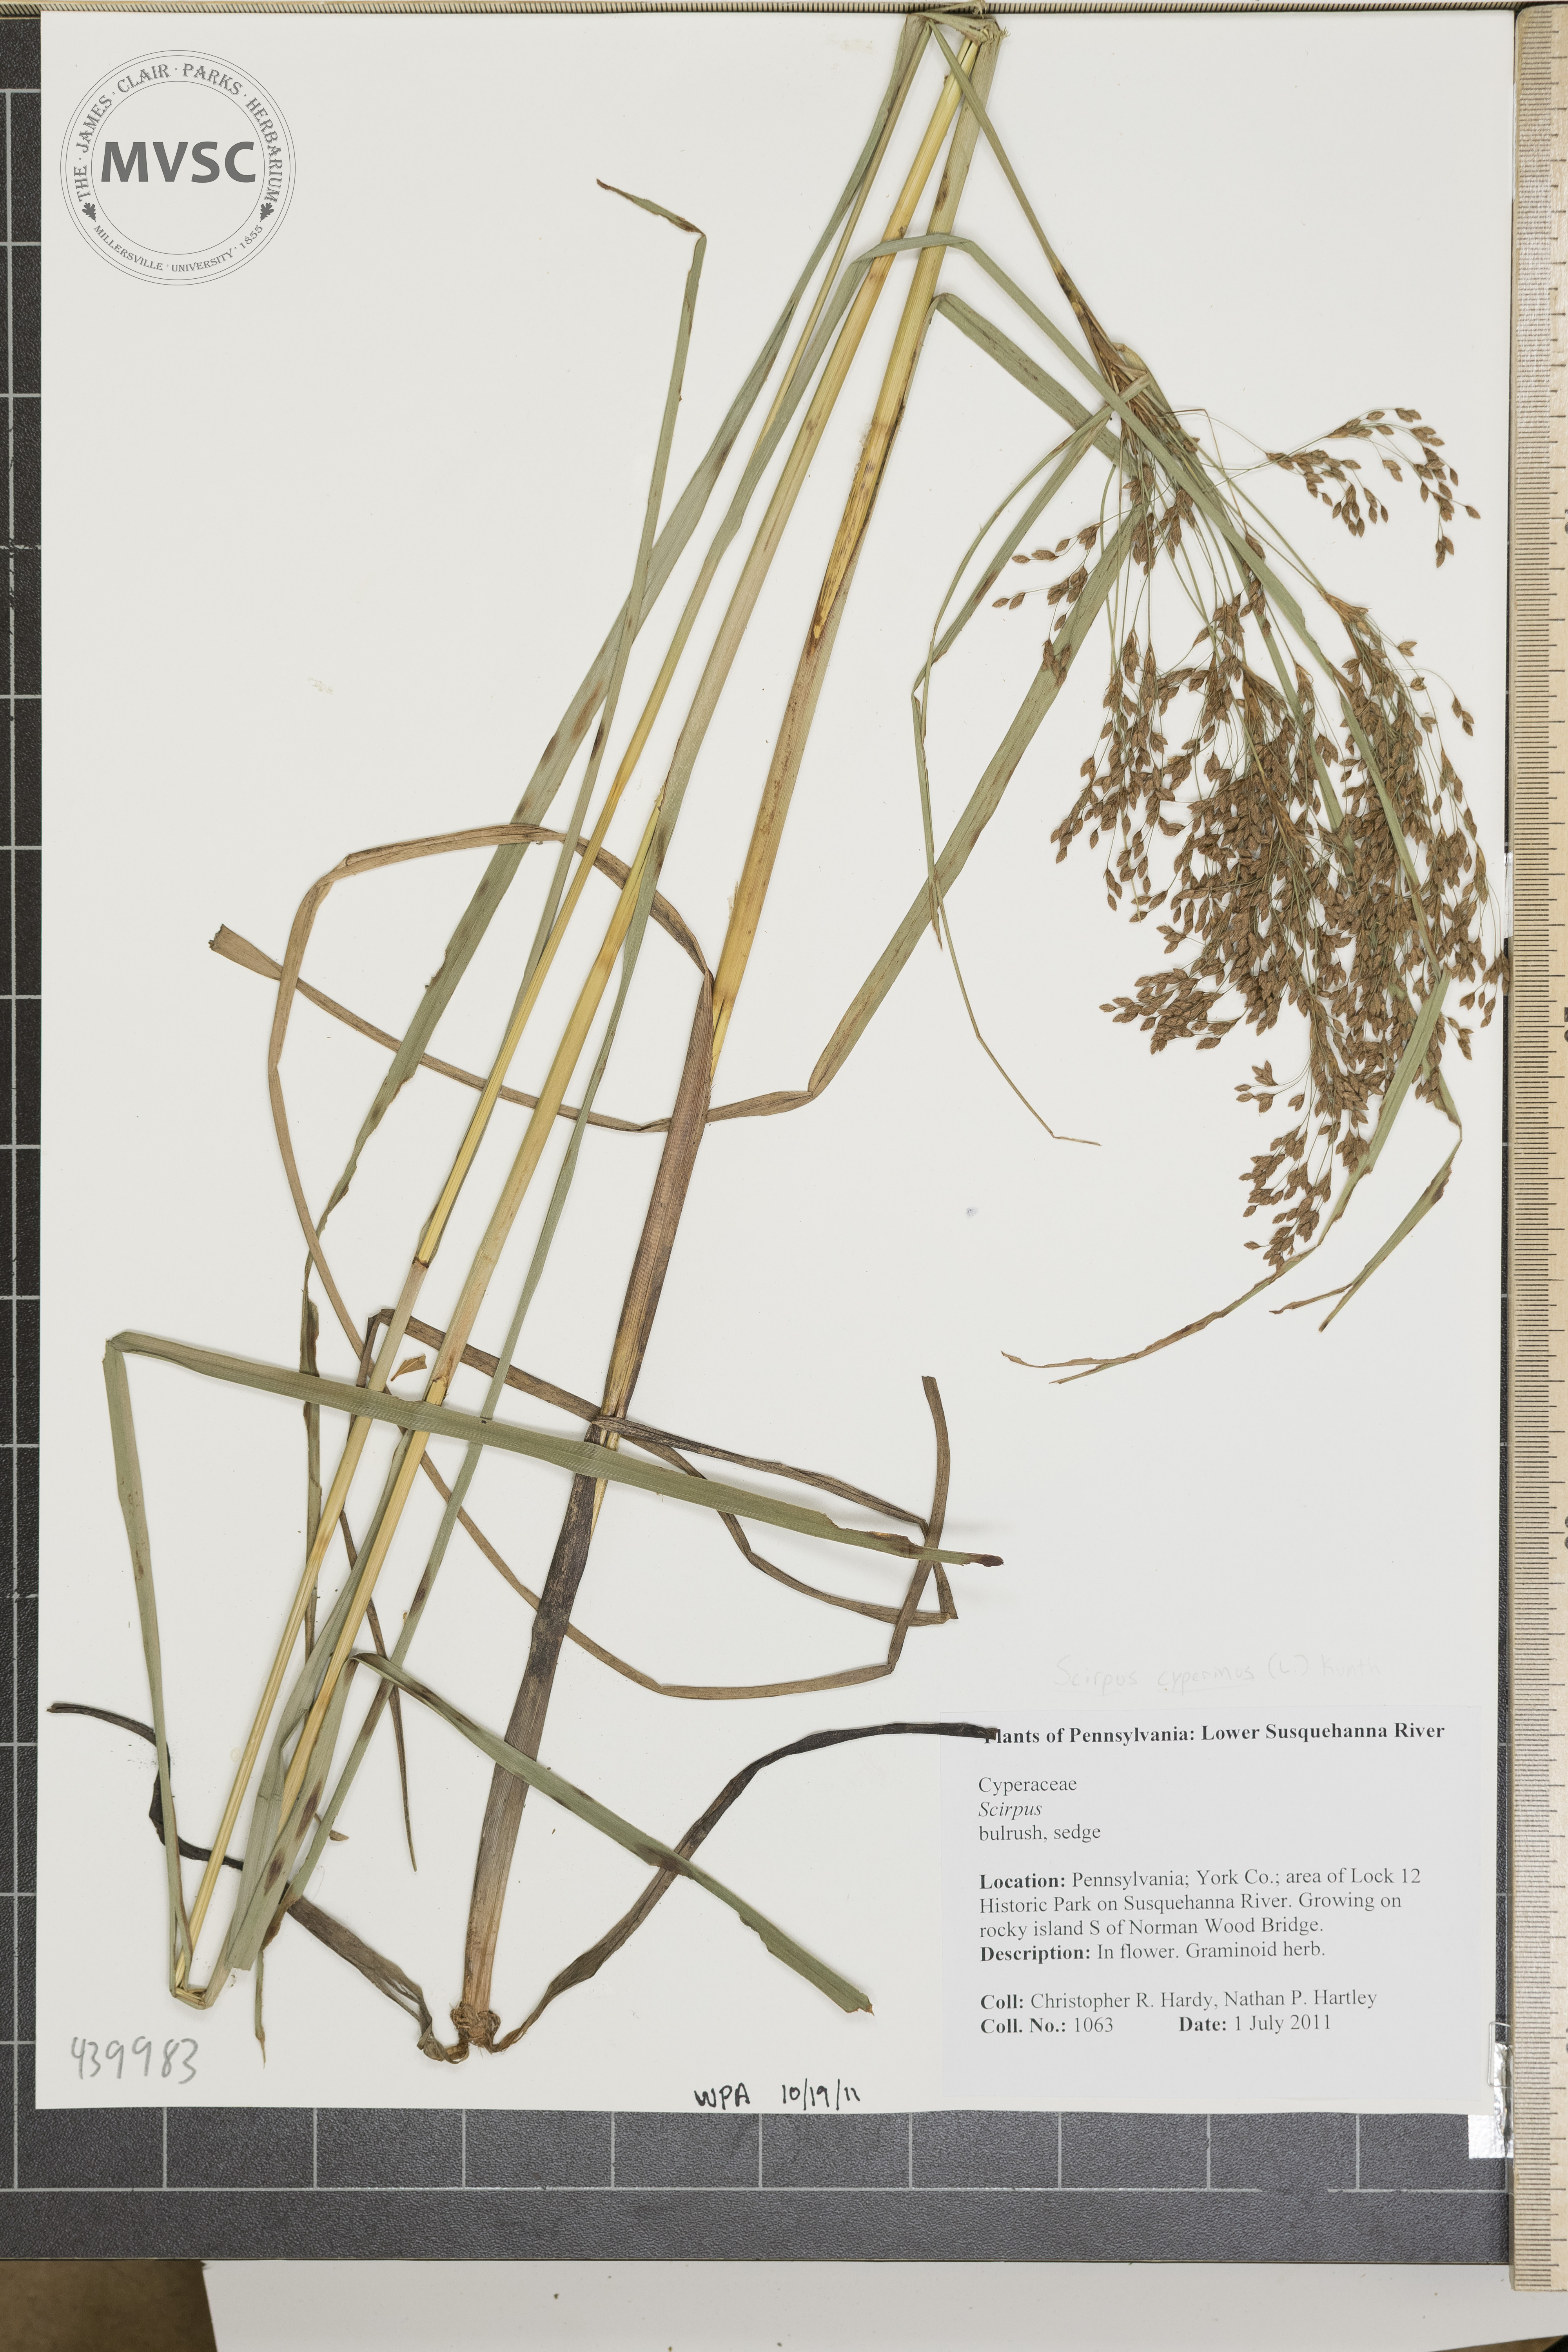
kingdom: Plantae
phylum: Tracheophyta
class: Liliopsida
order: Poales
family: Cyperaceae
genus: Scirpus
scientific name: Scirpus cyperinus
